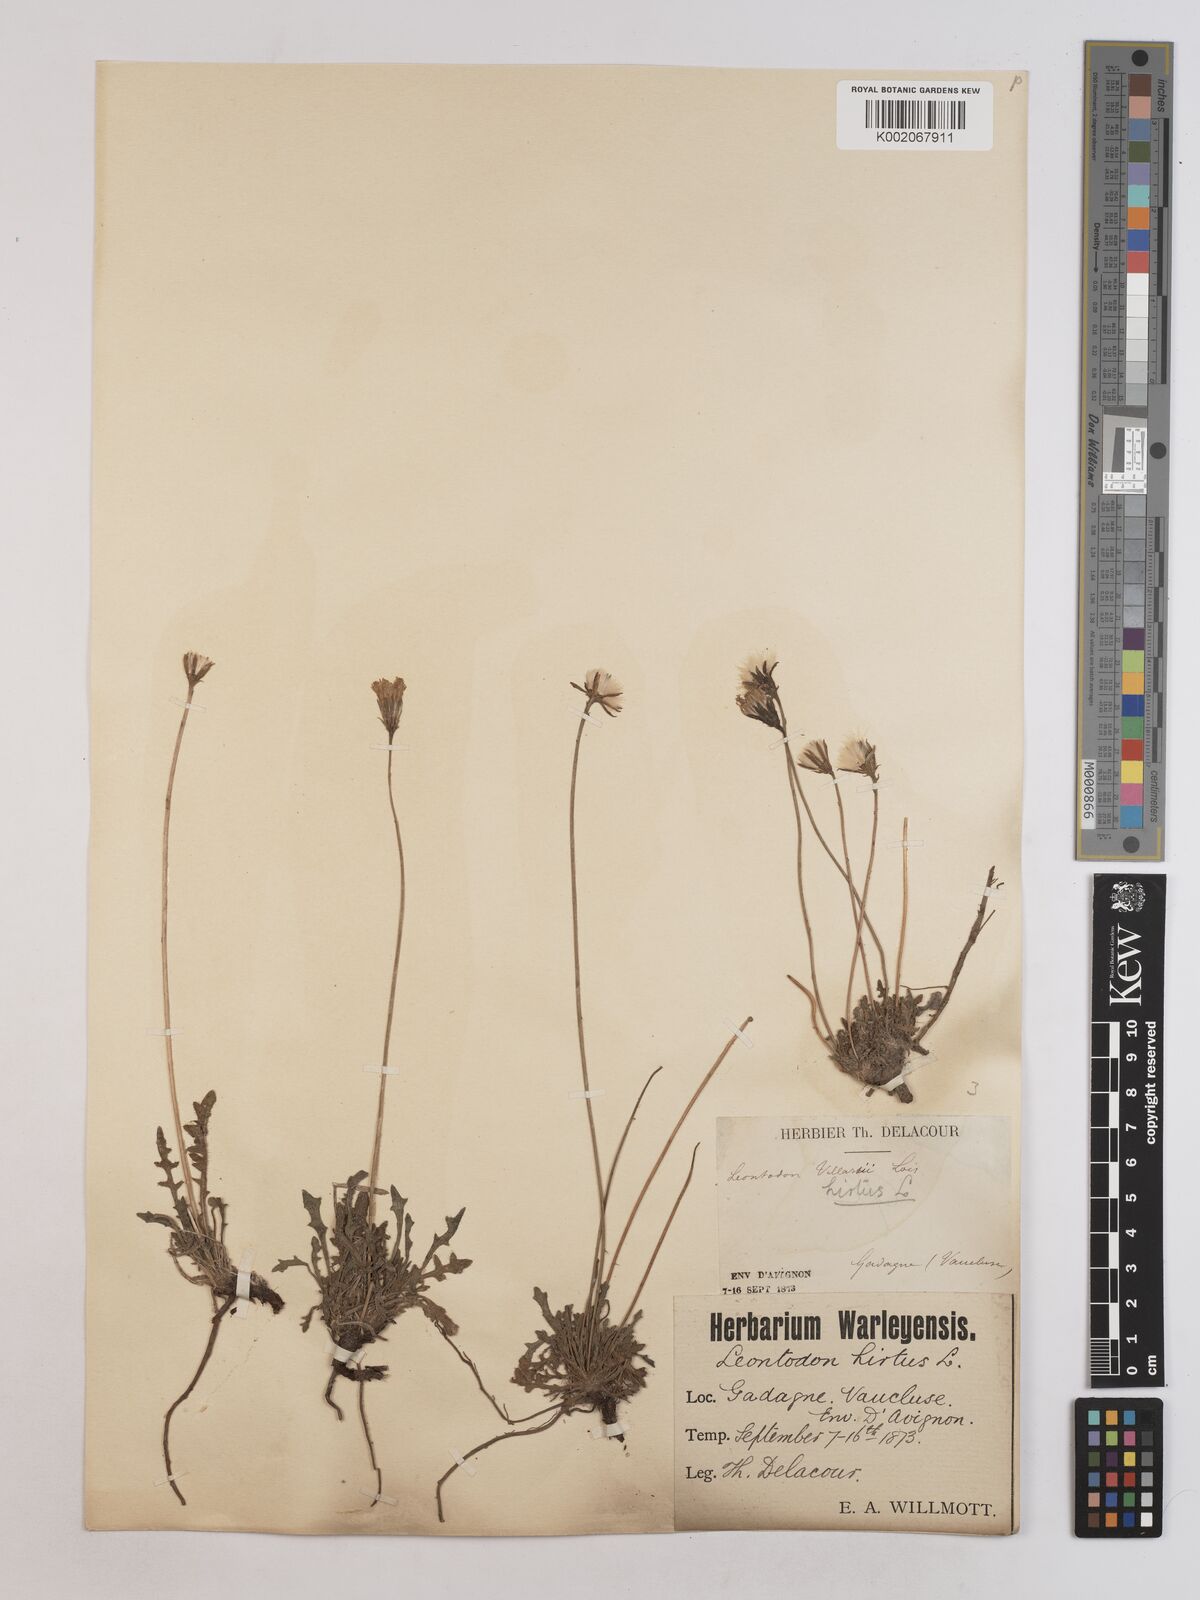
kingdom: Plantae
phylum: Tracheophyta
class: Magnoliopsida
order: Asterales
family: Asteraceae
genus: Leontodon
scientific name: Leontodon hirtus
